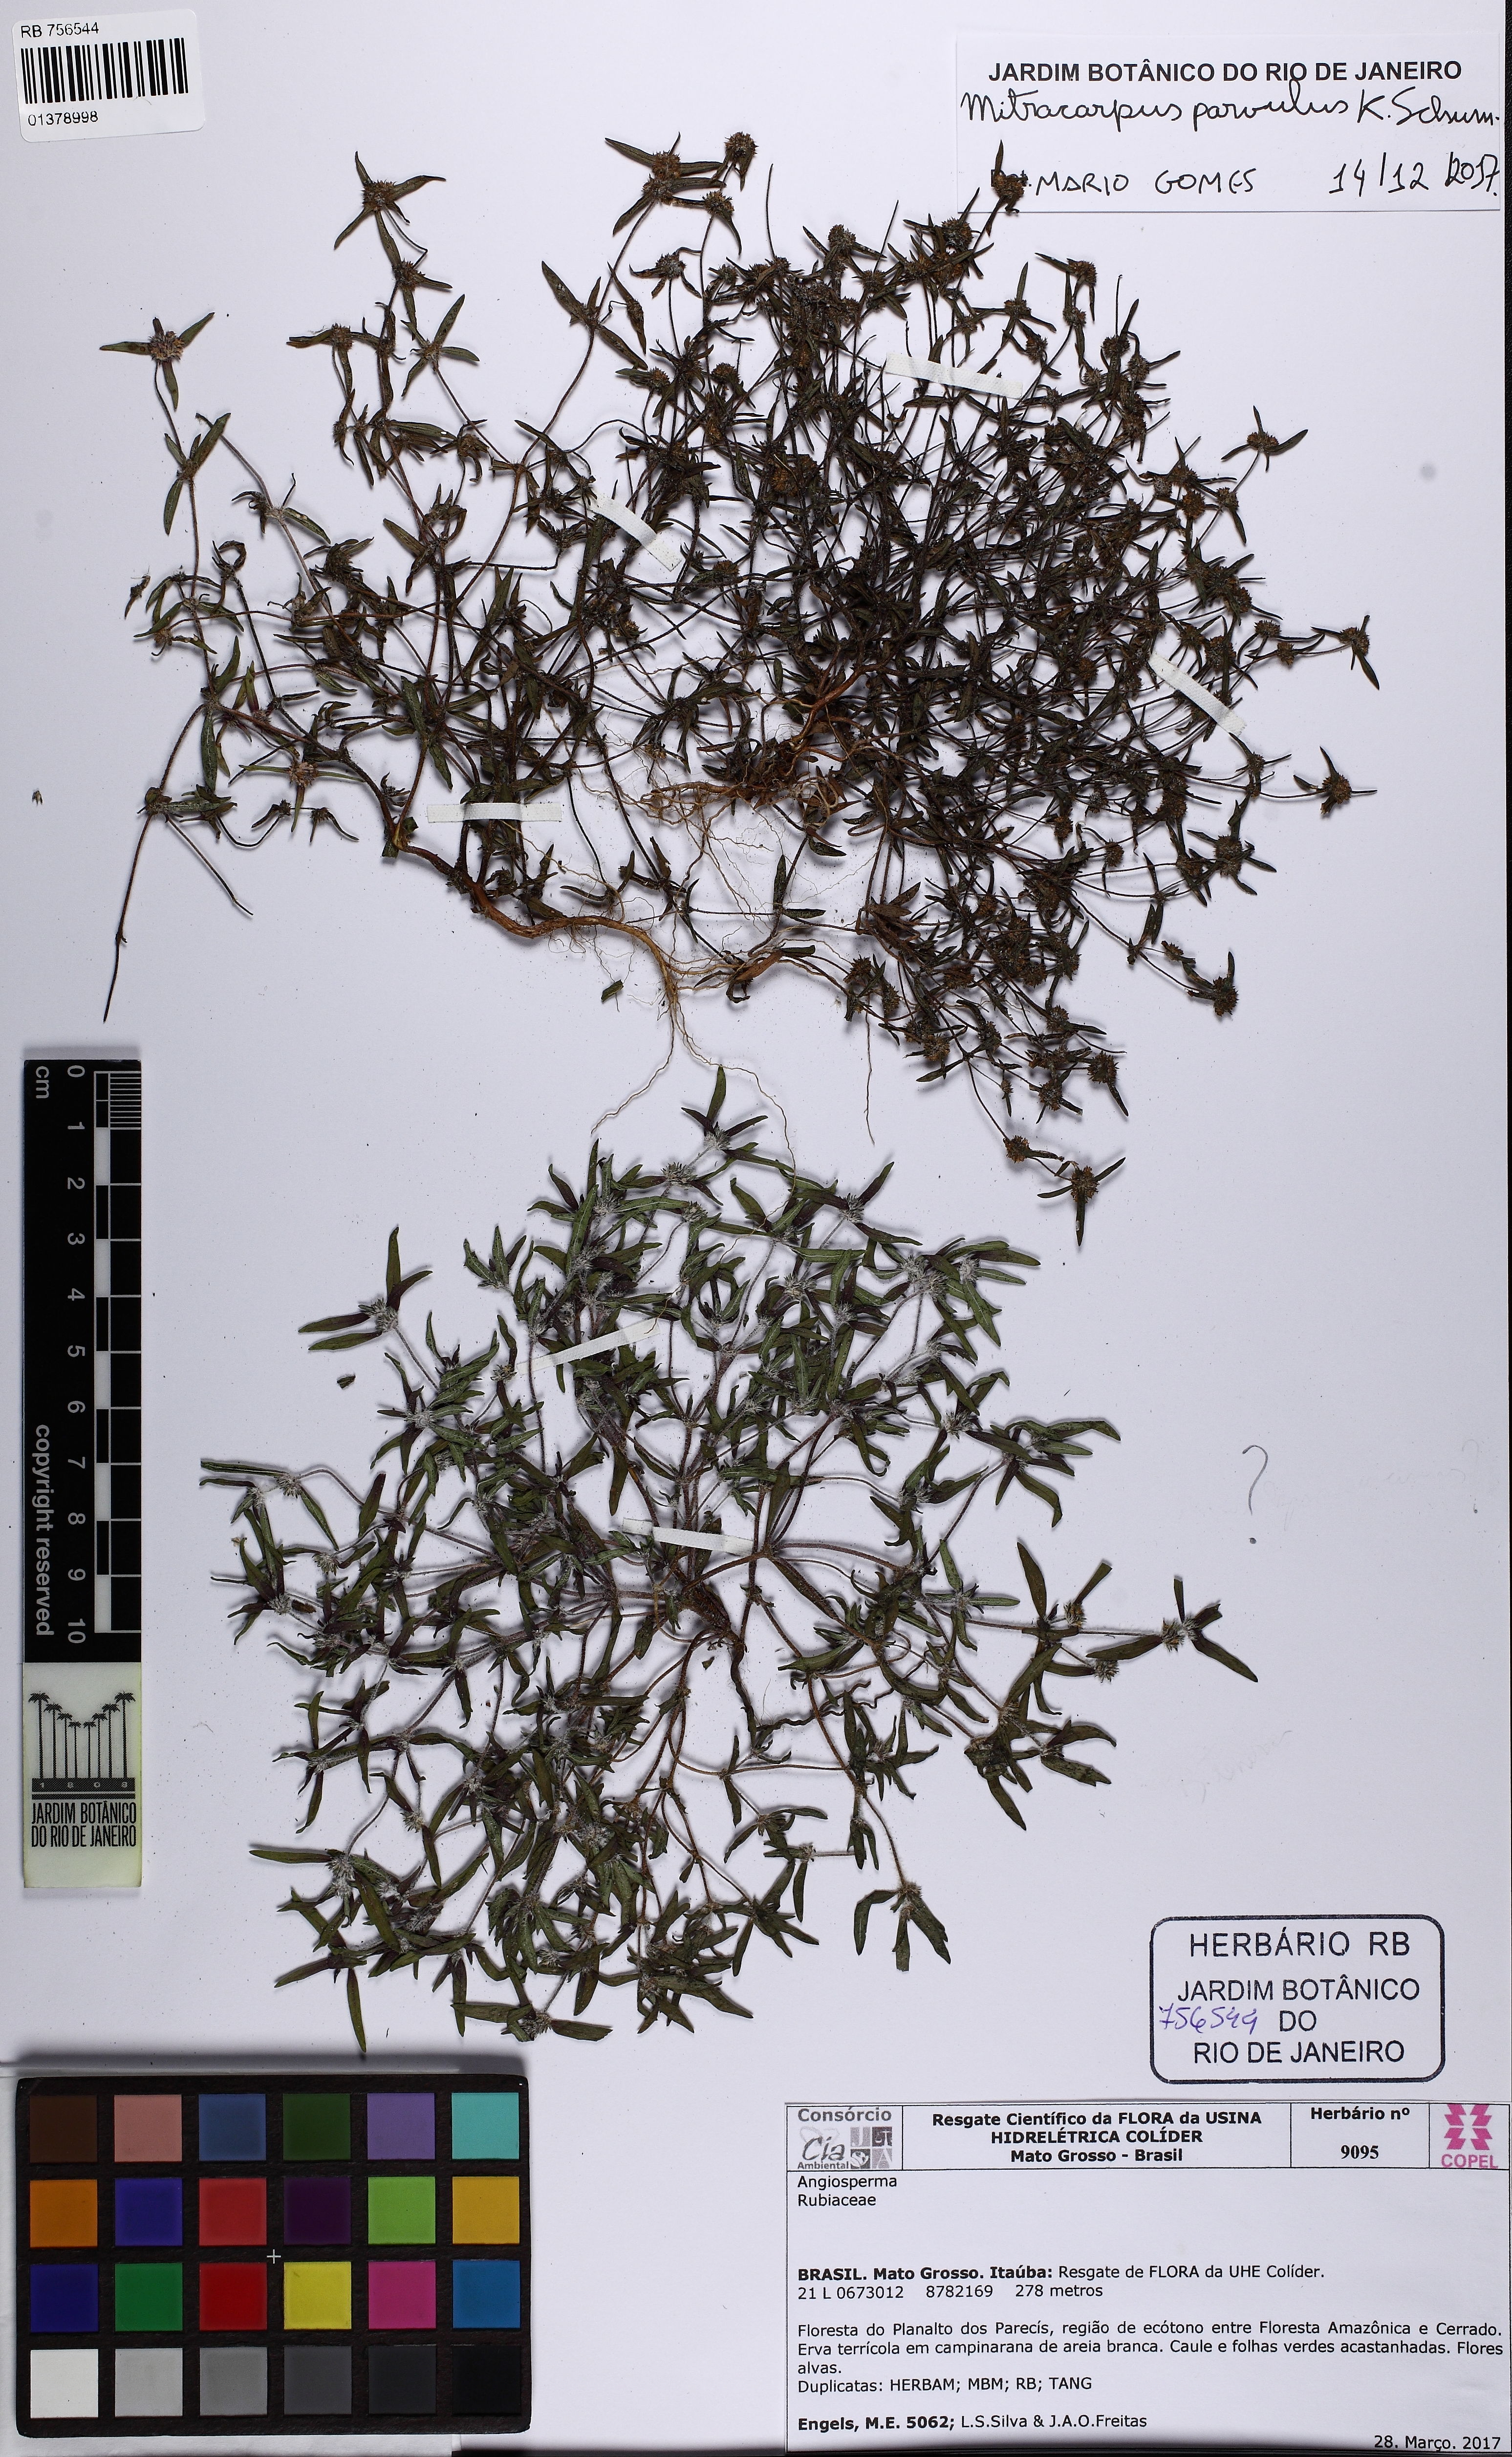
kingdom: Plantae
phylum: Tracheophyta
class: Magnoliopsida
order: Gentianales
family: Rubiaceae
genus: Mitracarpus
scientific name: Mitracarpus parvulus
